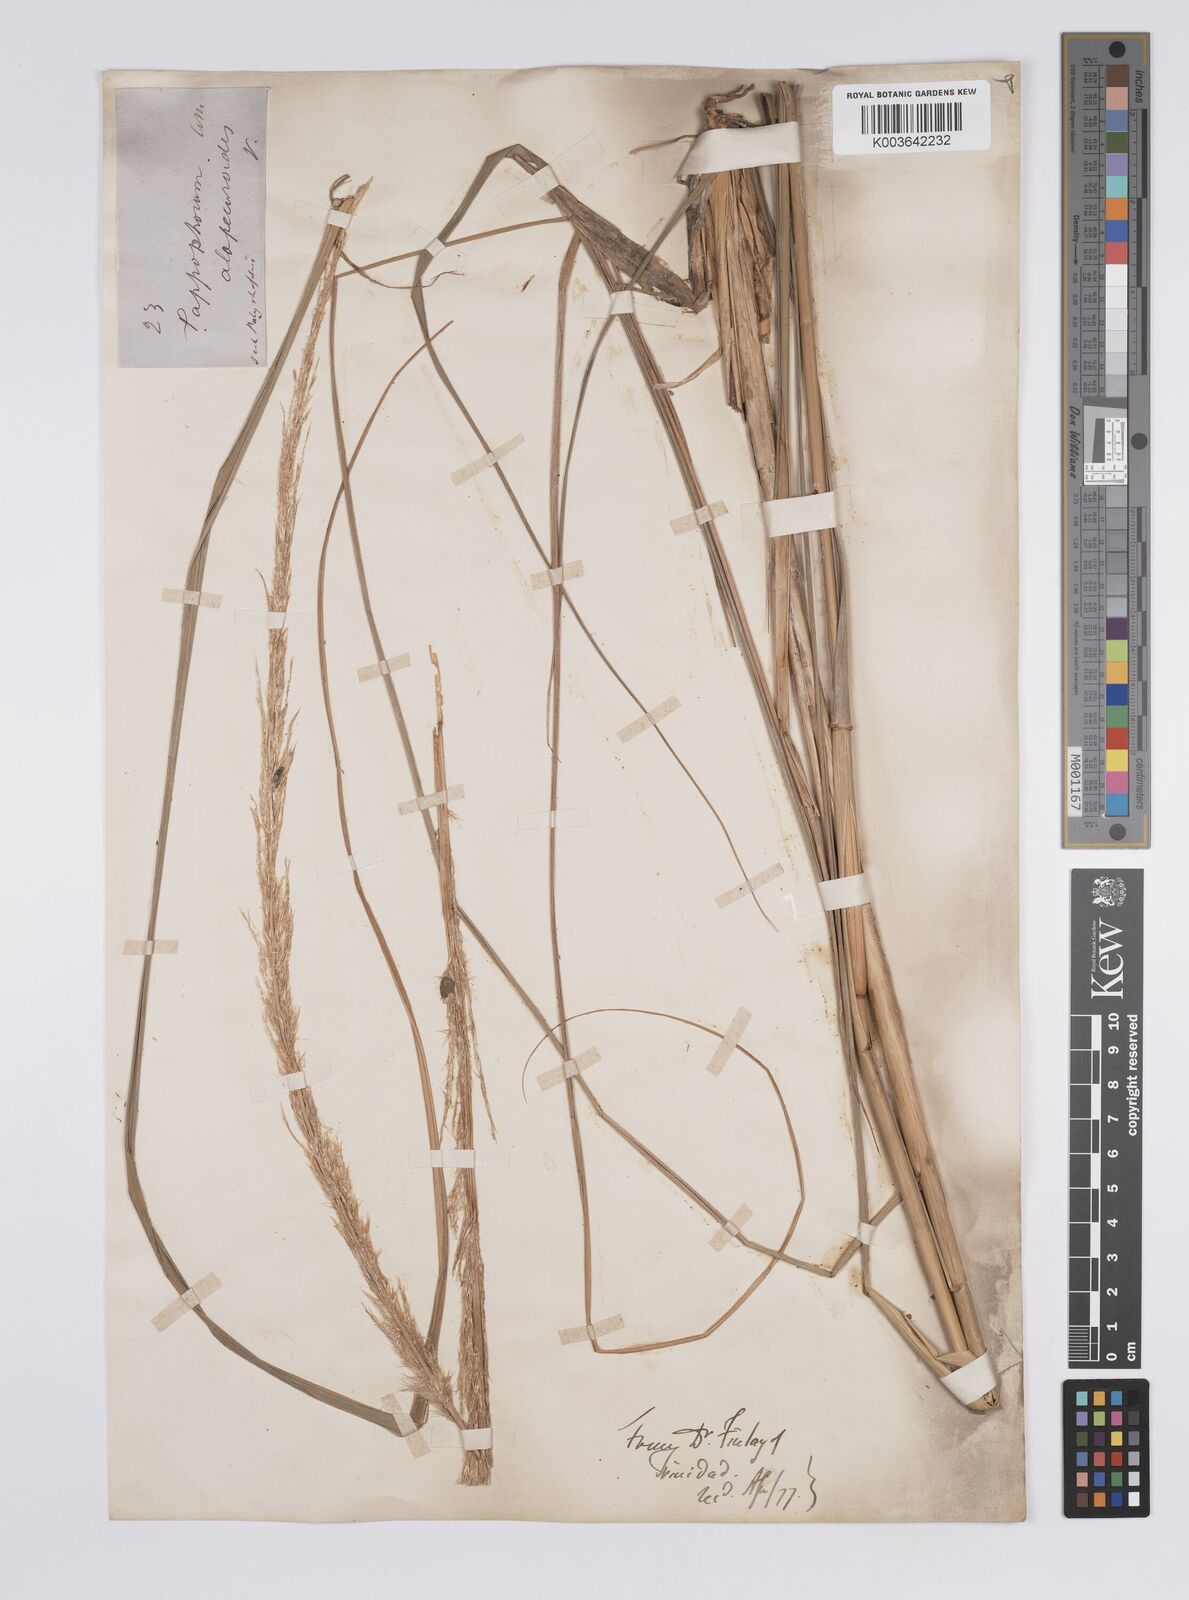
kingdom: Plantae
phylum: Tracheophyta
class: Liliopsida
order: Poales
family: Poaceae
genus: Pappophorum
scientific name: Pappophorum pappiferum
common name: Crabgrass
